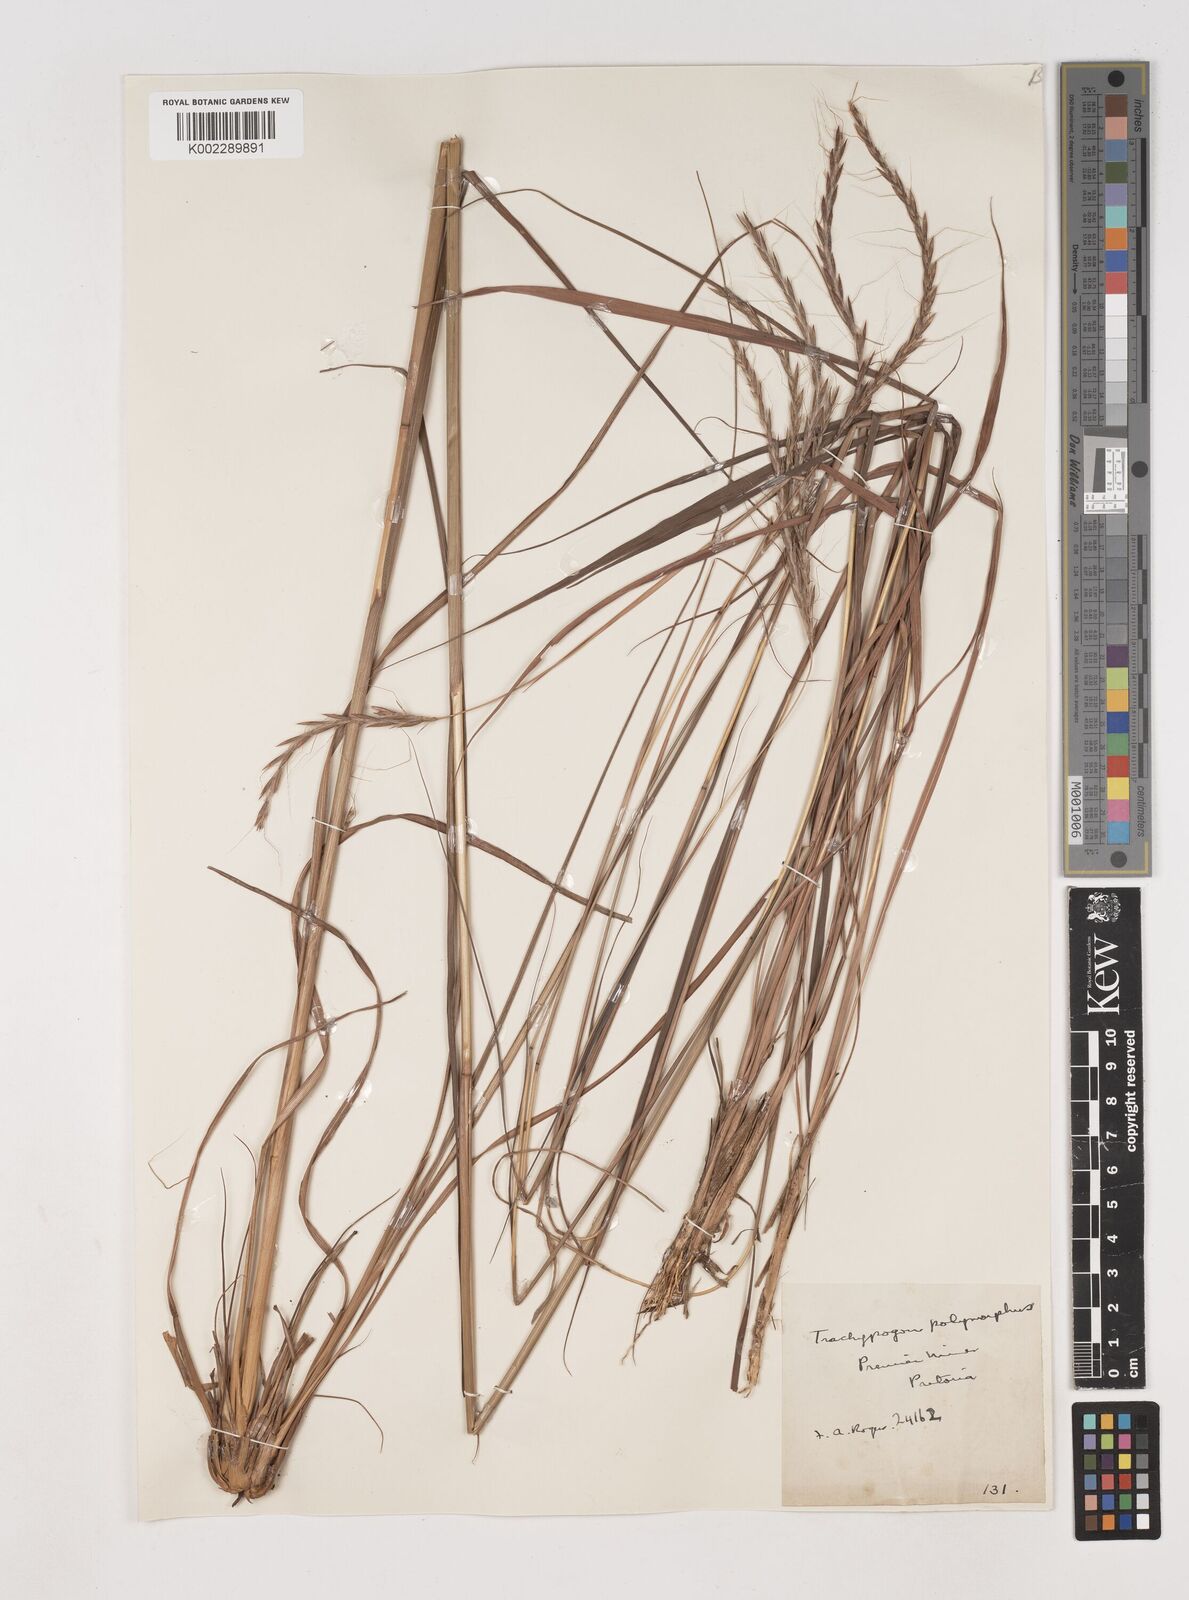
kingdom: Plantae
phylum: Tracheophyta
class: Liliopsida
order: Poales
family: Poaceae
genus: Diheteropogon
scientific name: Diheteropogon amplectens
